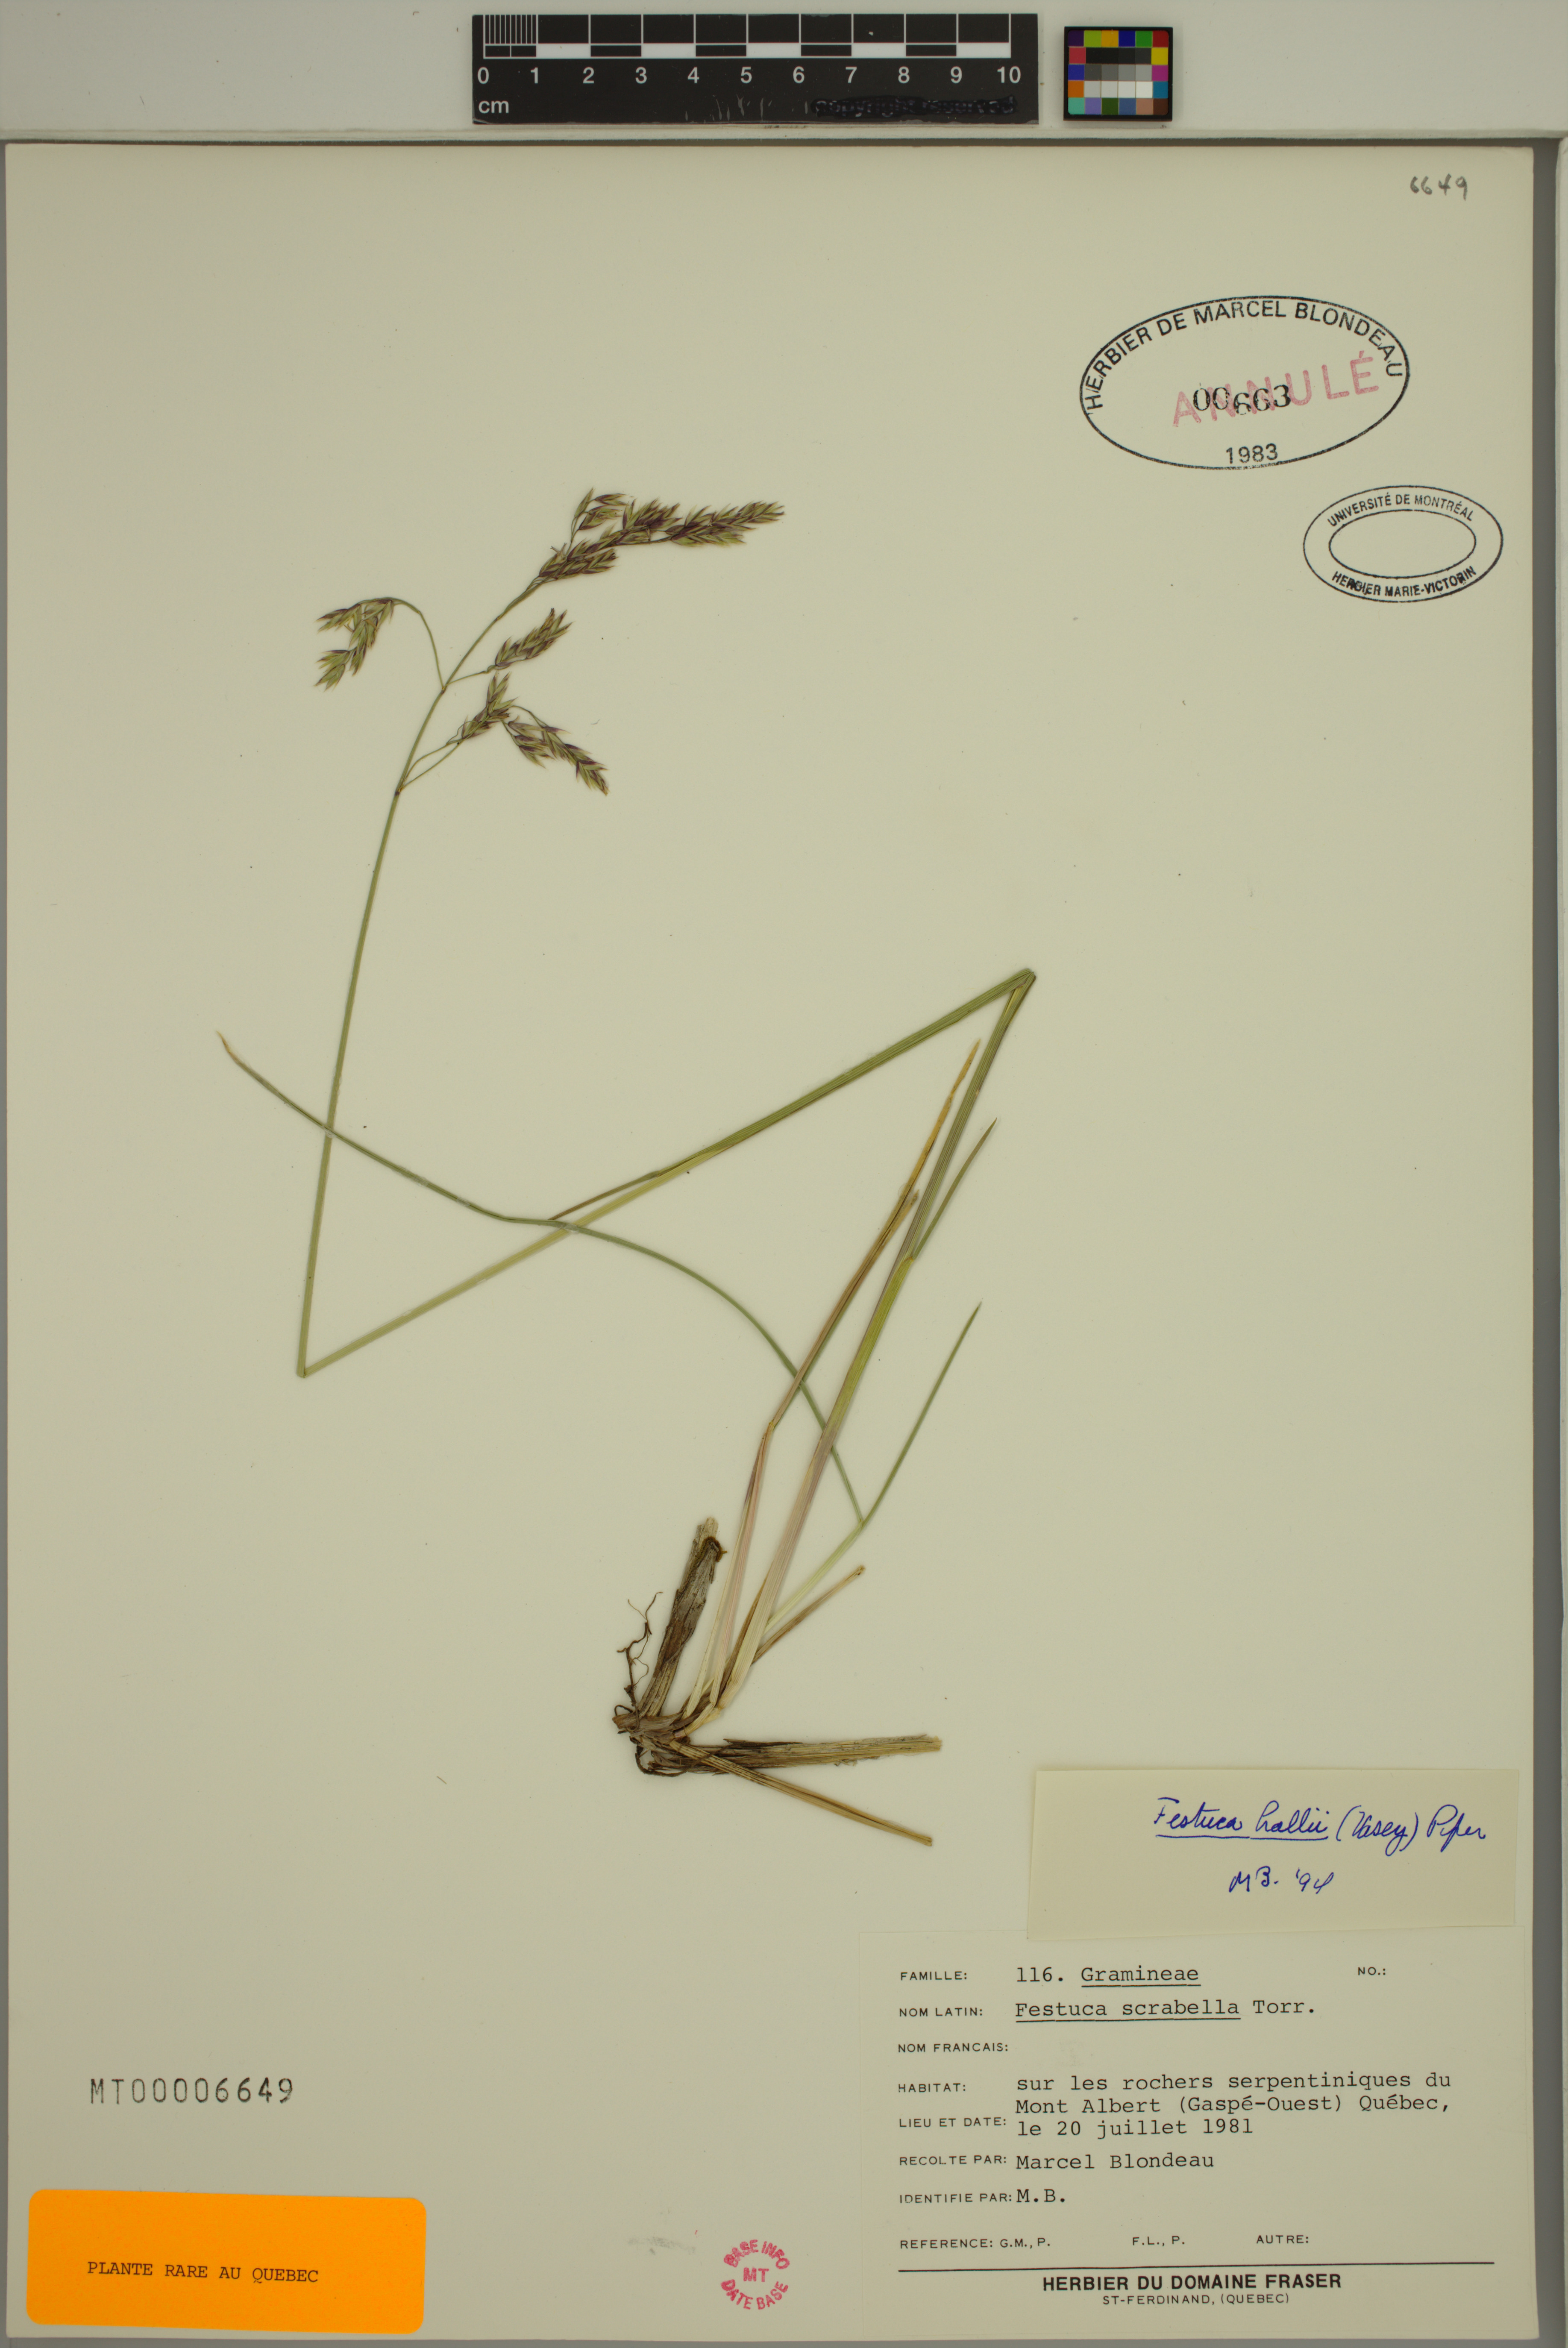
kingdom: Plantae
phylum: Tracheophyta
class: Liliopsida
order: Poales
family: Poaceae
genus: Festuca
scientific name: Festuca altaica
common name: Northern rough fescue
